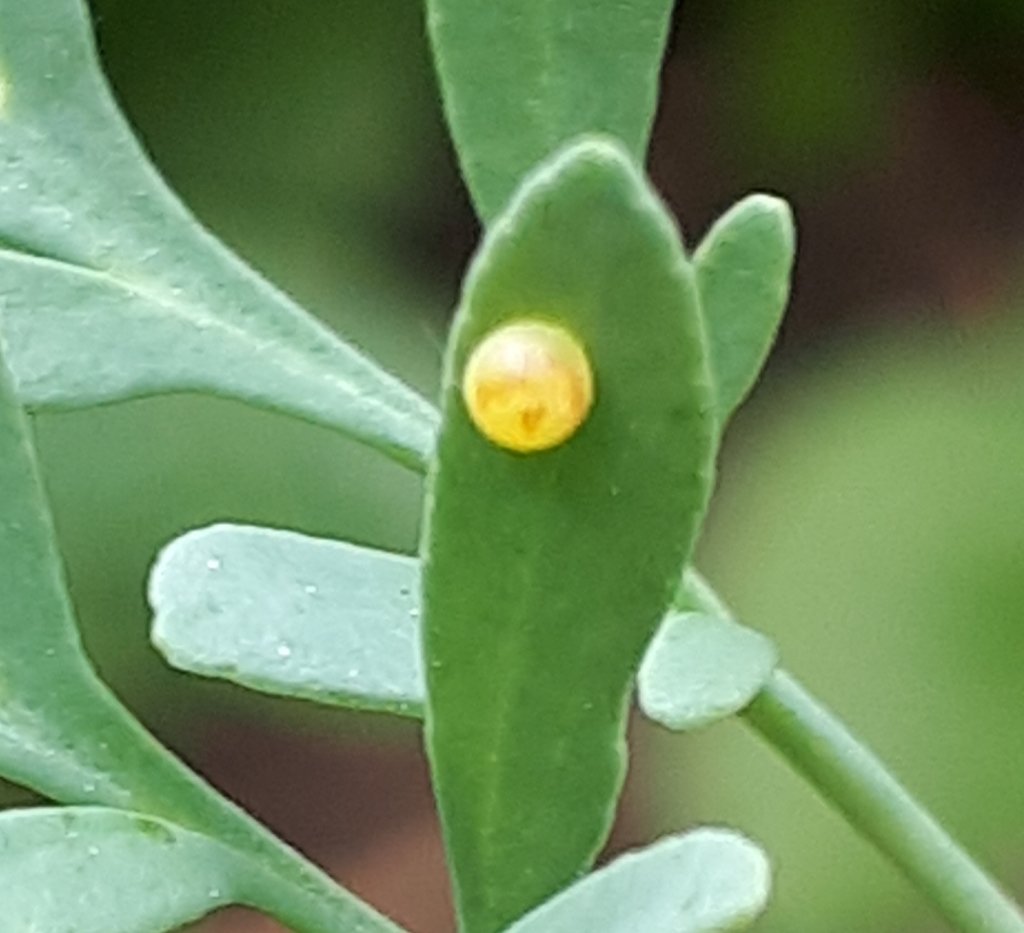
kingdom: Animalia
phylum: Arthropoda
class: Insecta
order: Lepidoptera
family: Papilionidae
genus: Papilio
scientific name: Papilio polyxenes
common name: Black Swallowtail
